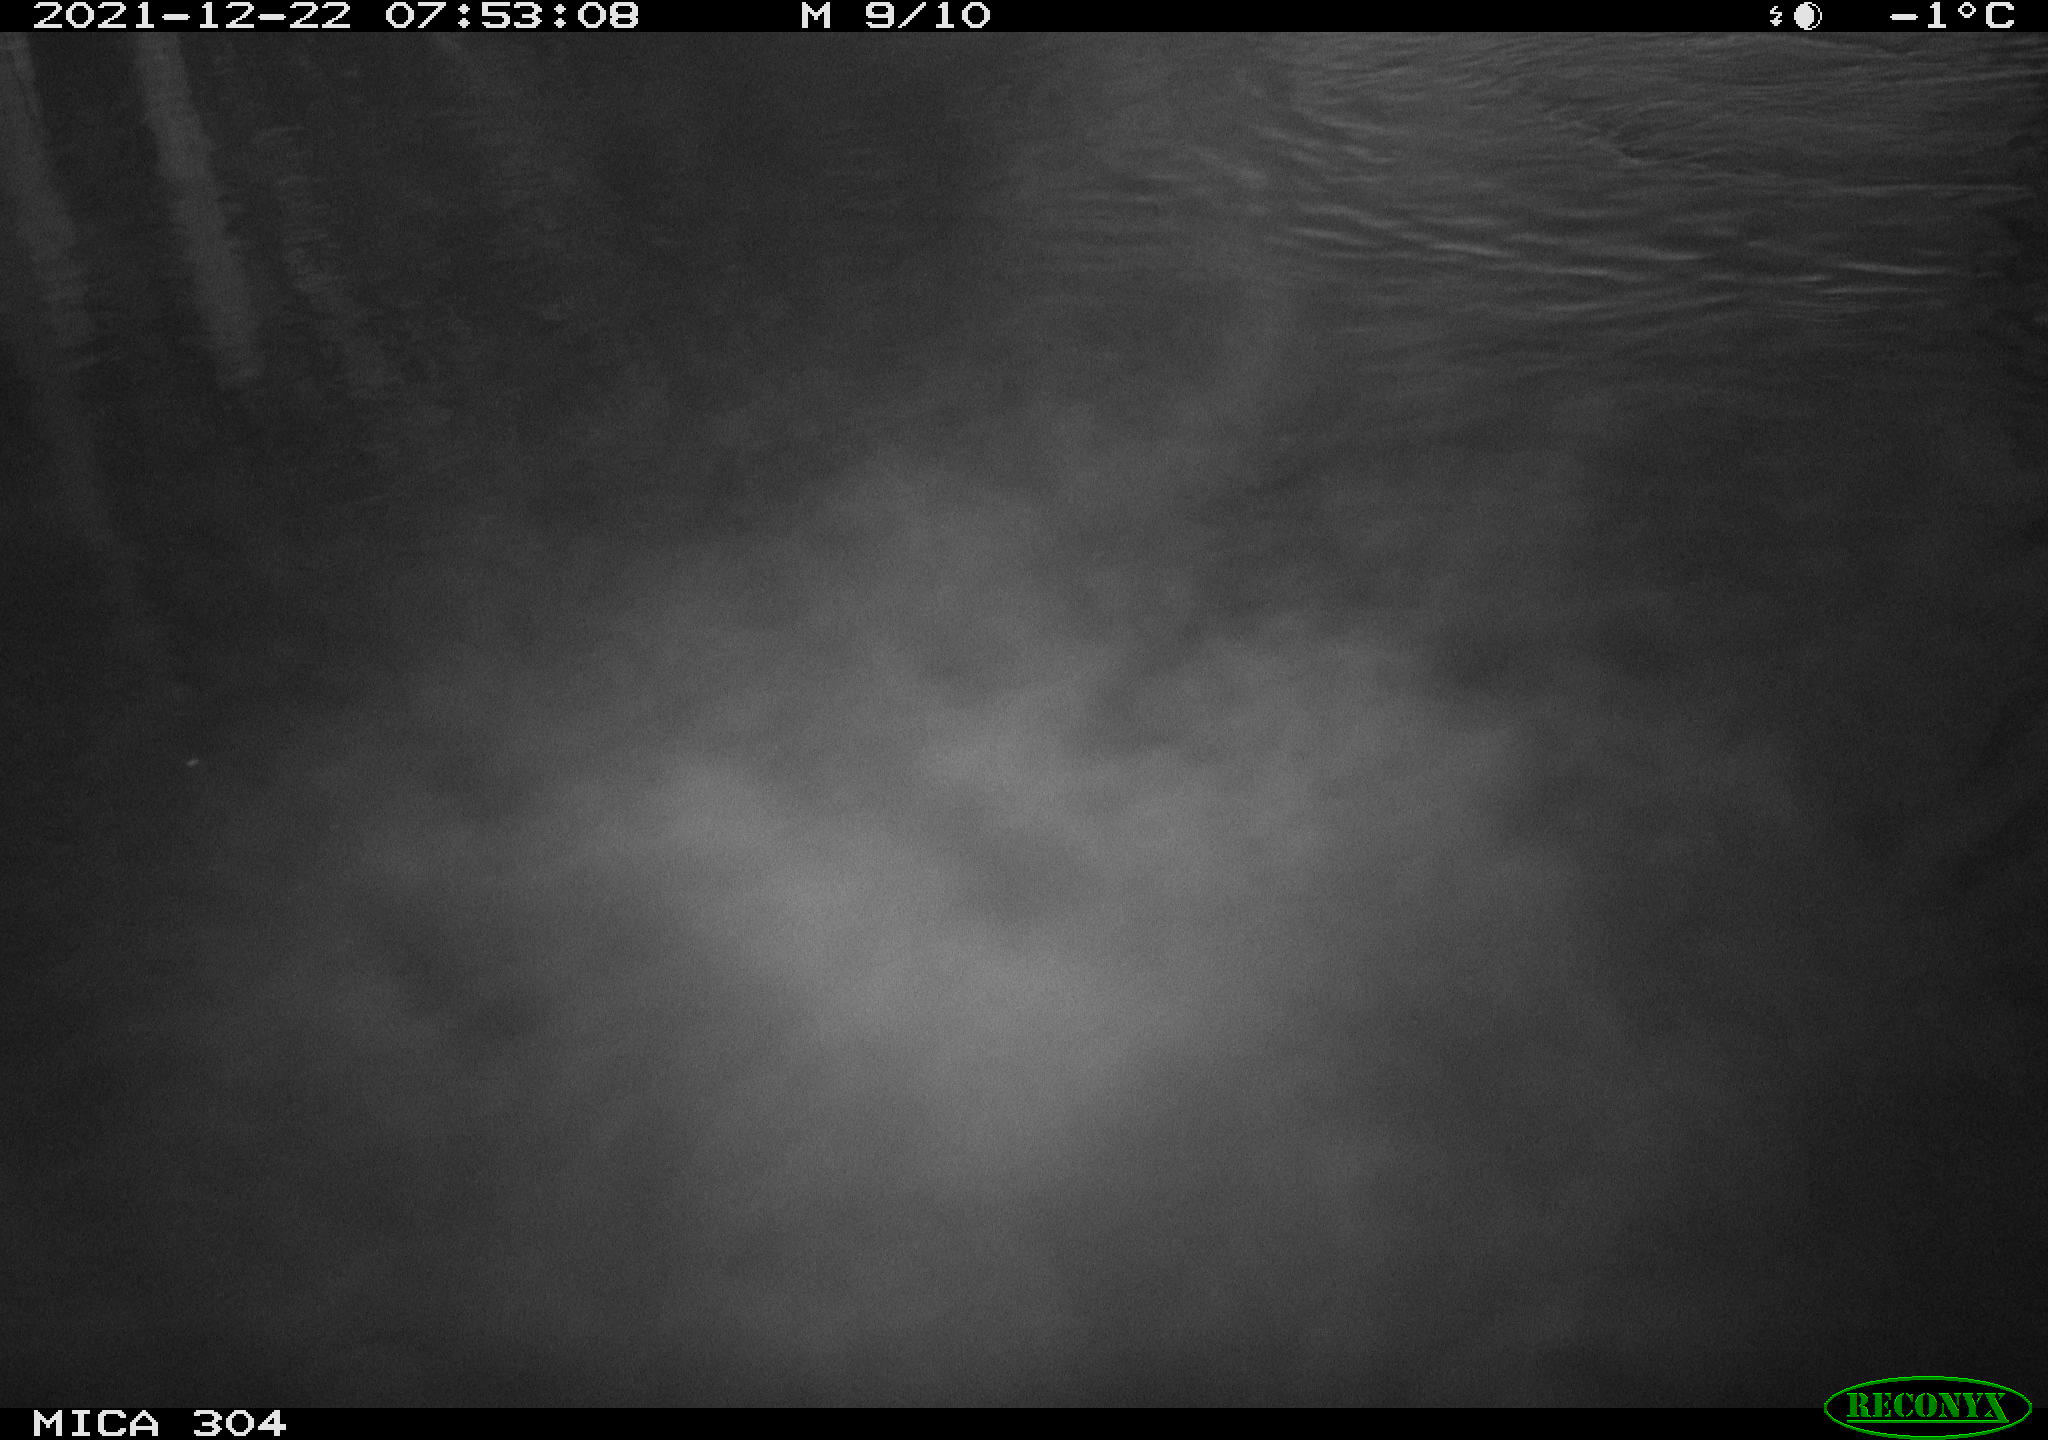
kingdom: Animalia
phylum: Chordata
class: Mammalia
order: Rodentia
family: Muridae
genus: Rattus
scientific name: Rattus norvegicus
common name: Brown rat
